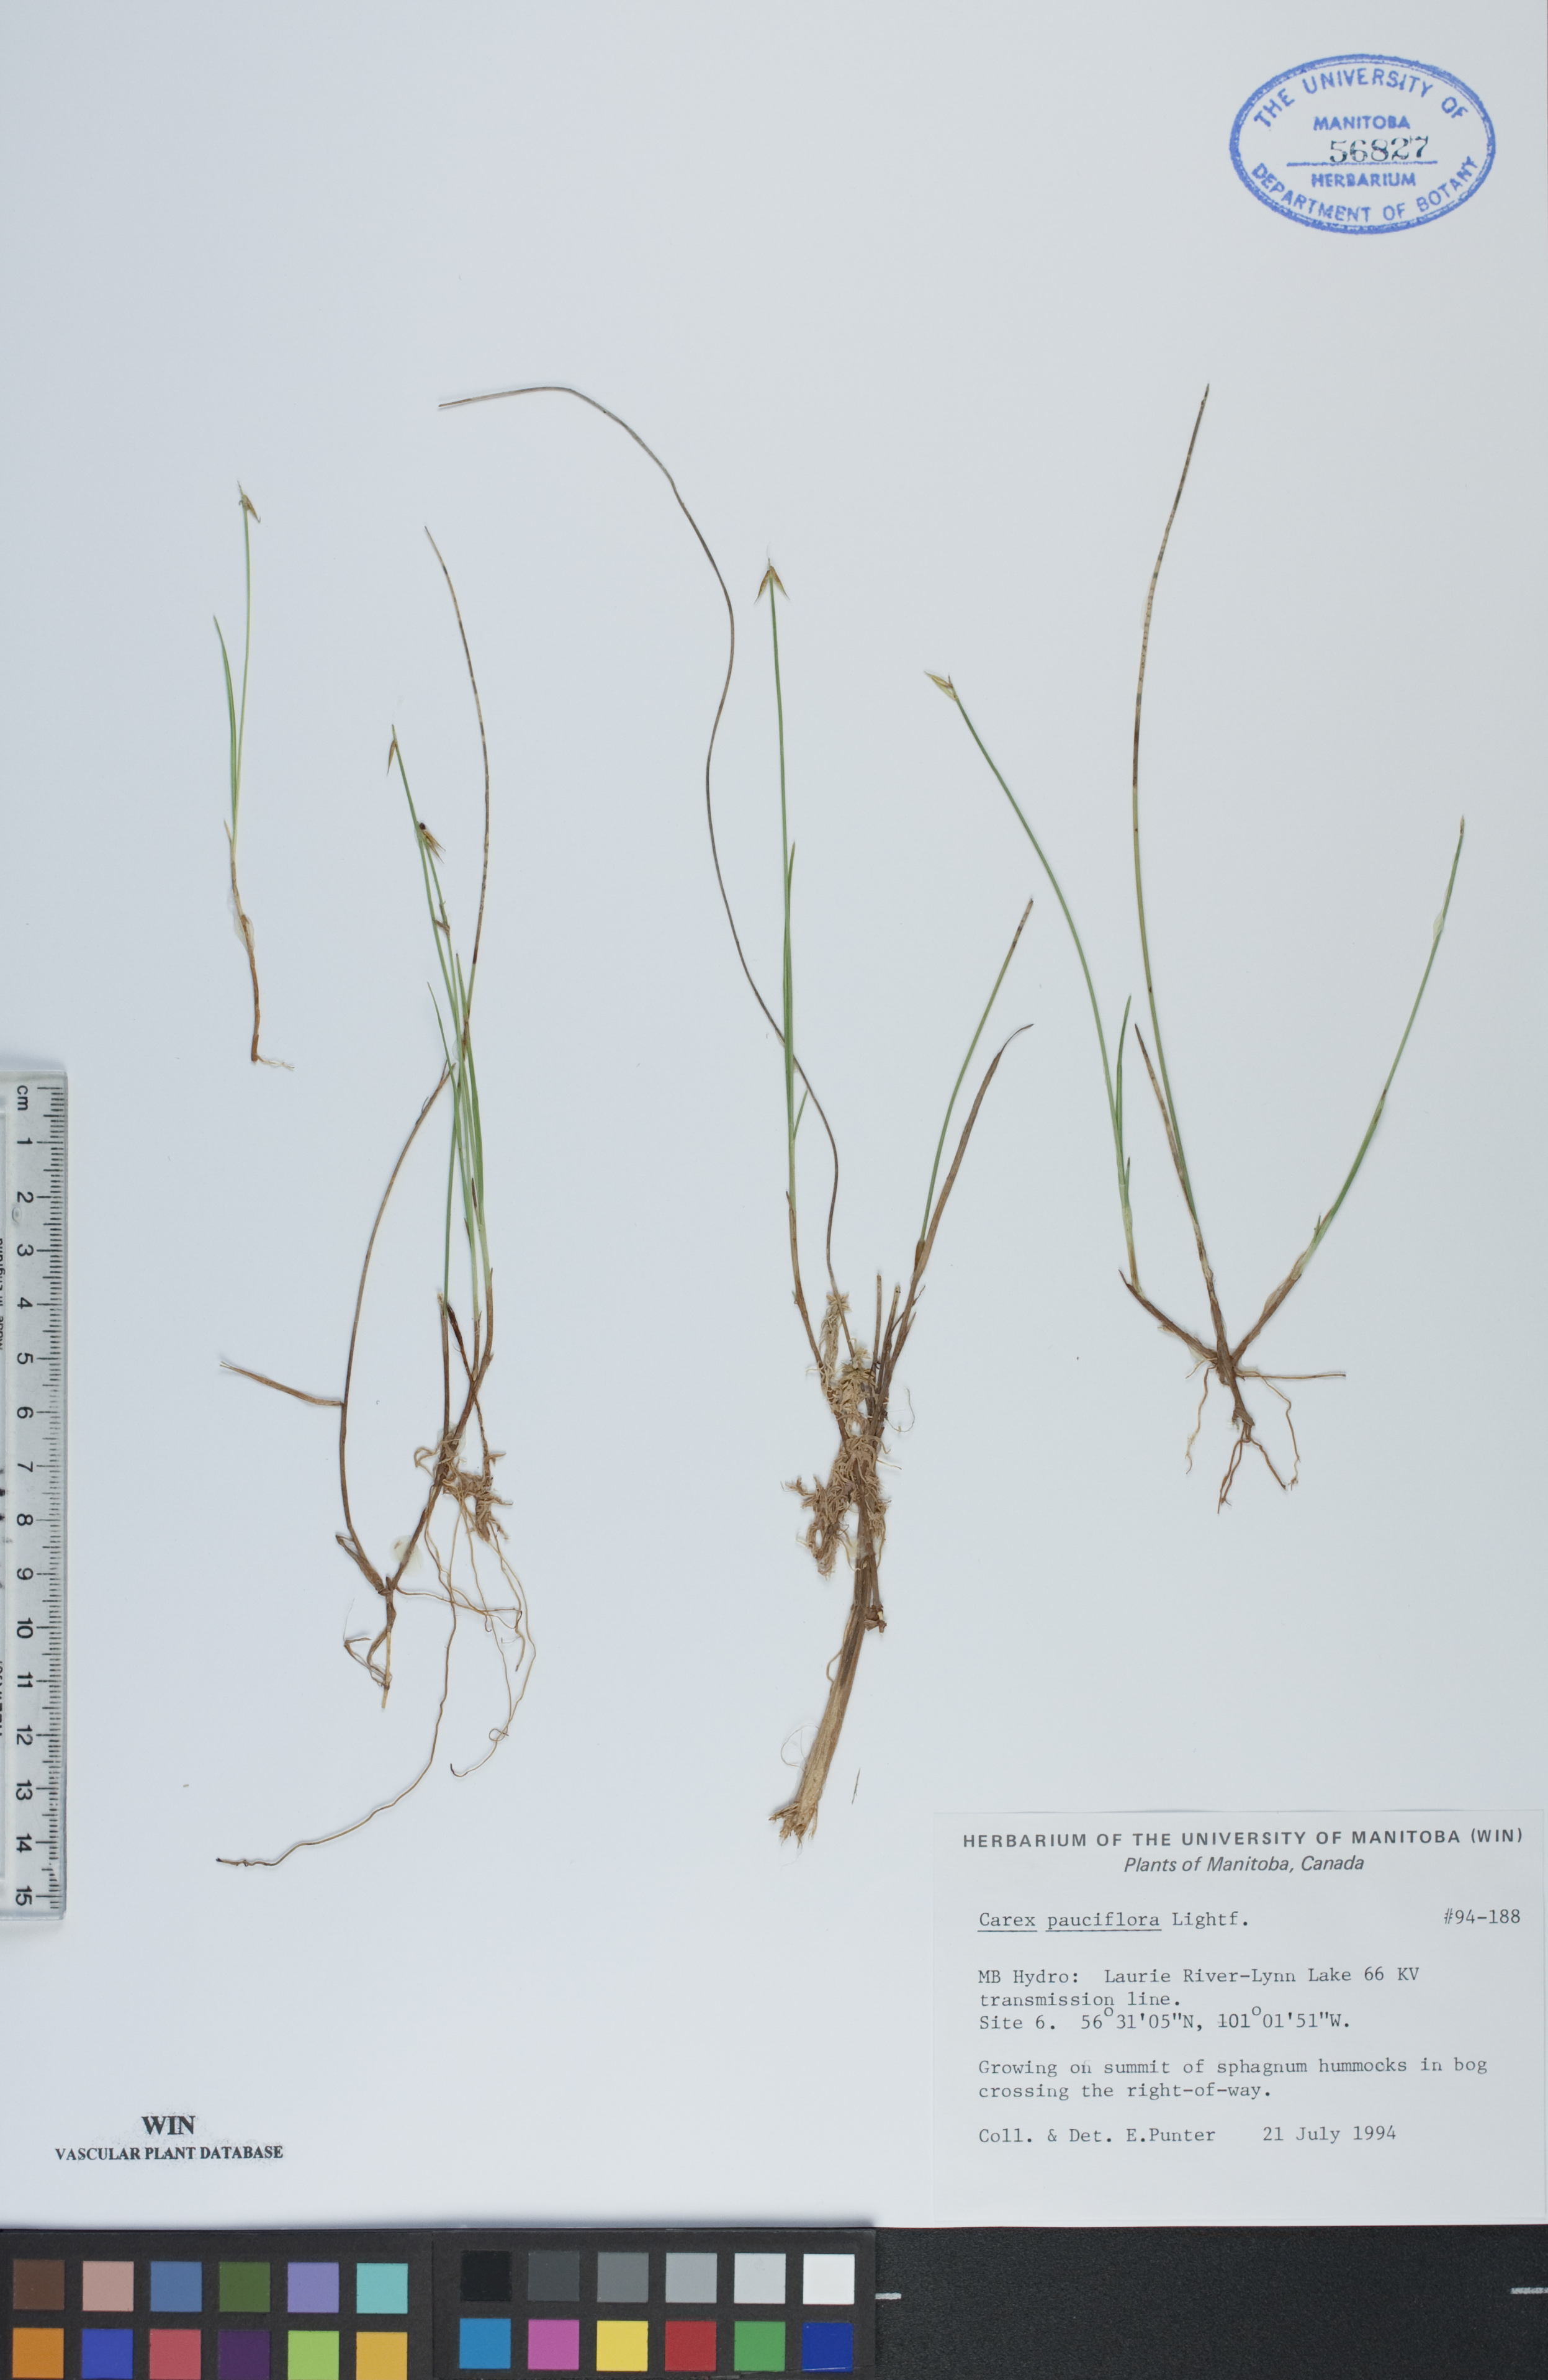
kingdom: Plantae
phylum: Tracheophyta
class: Liliopsida
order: Poales
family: Cyperaceae
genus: Carex
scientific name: Carex pauciflora
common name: Few-flowered sedge
